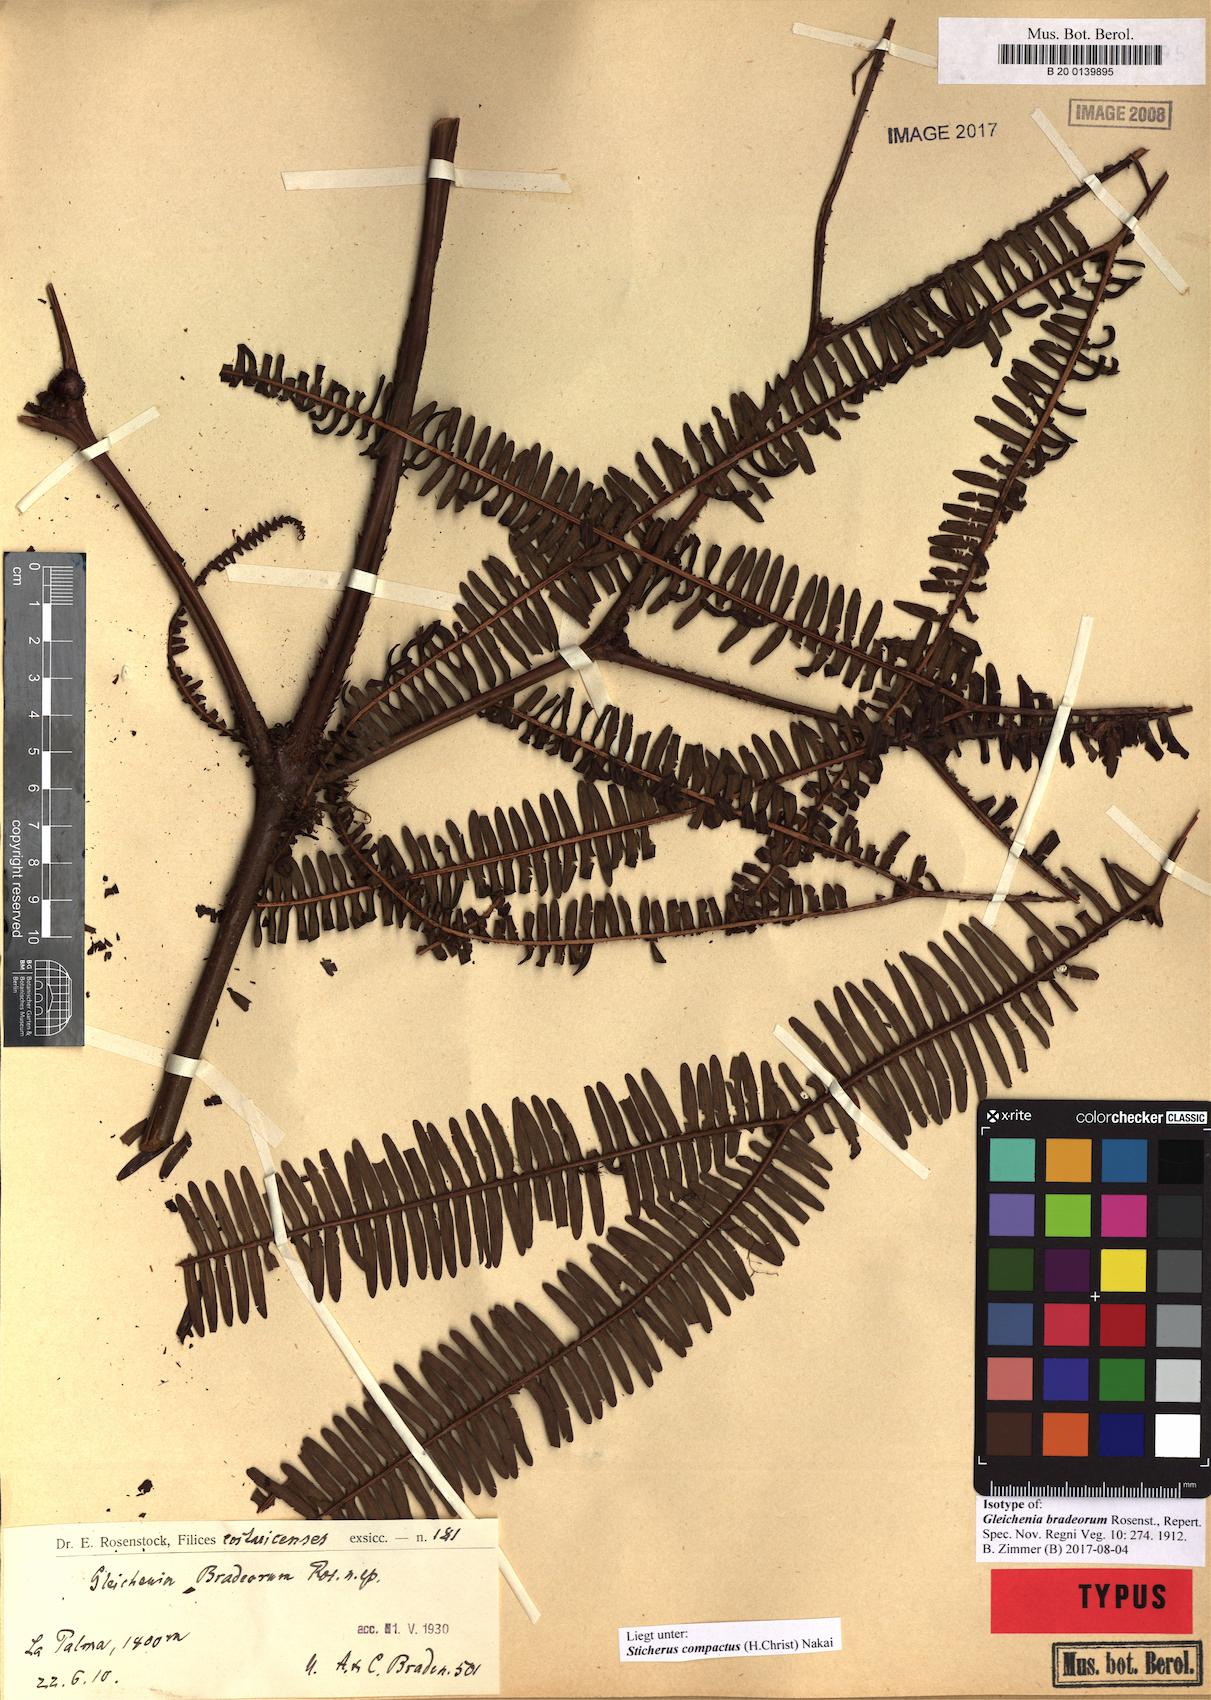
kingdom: Plantae
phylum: Tracheophyta
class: Polypodiopsida
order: Gleicheniales
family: Gleicheniaceae
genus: Sticherus
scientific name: Sticherus compactus
